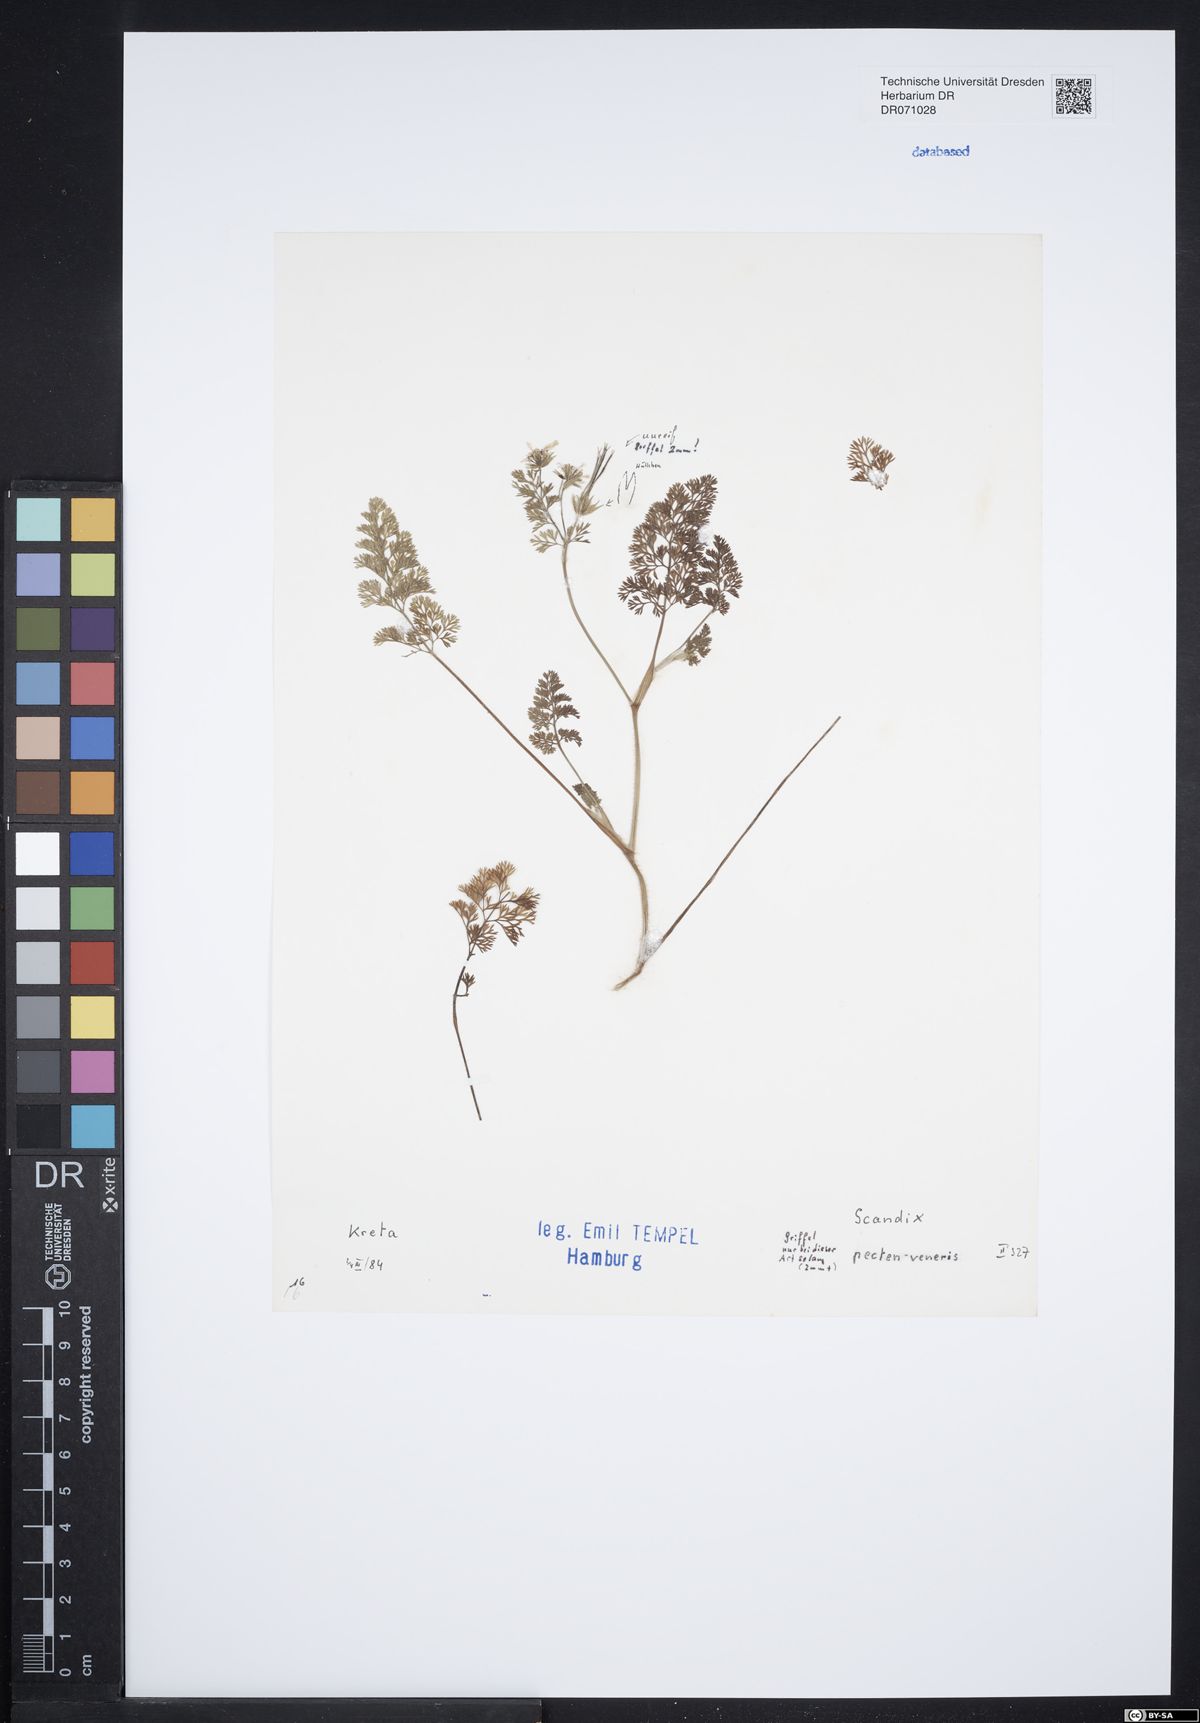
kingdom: Plantae
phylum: Tracheophyta
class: Magnoliopsida
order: Apiales
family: Apiaceae
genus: Scandix
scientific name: Scandix pecten-veneris
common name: Shepherd's-needle
